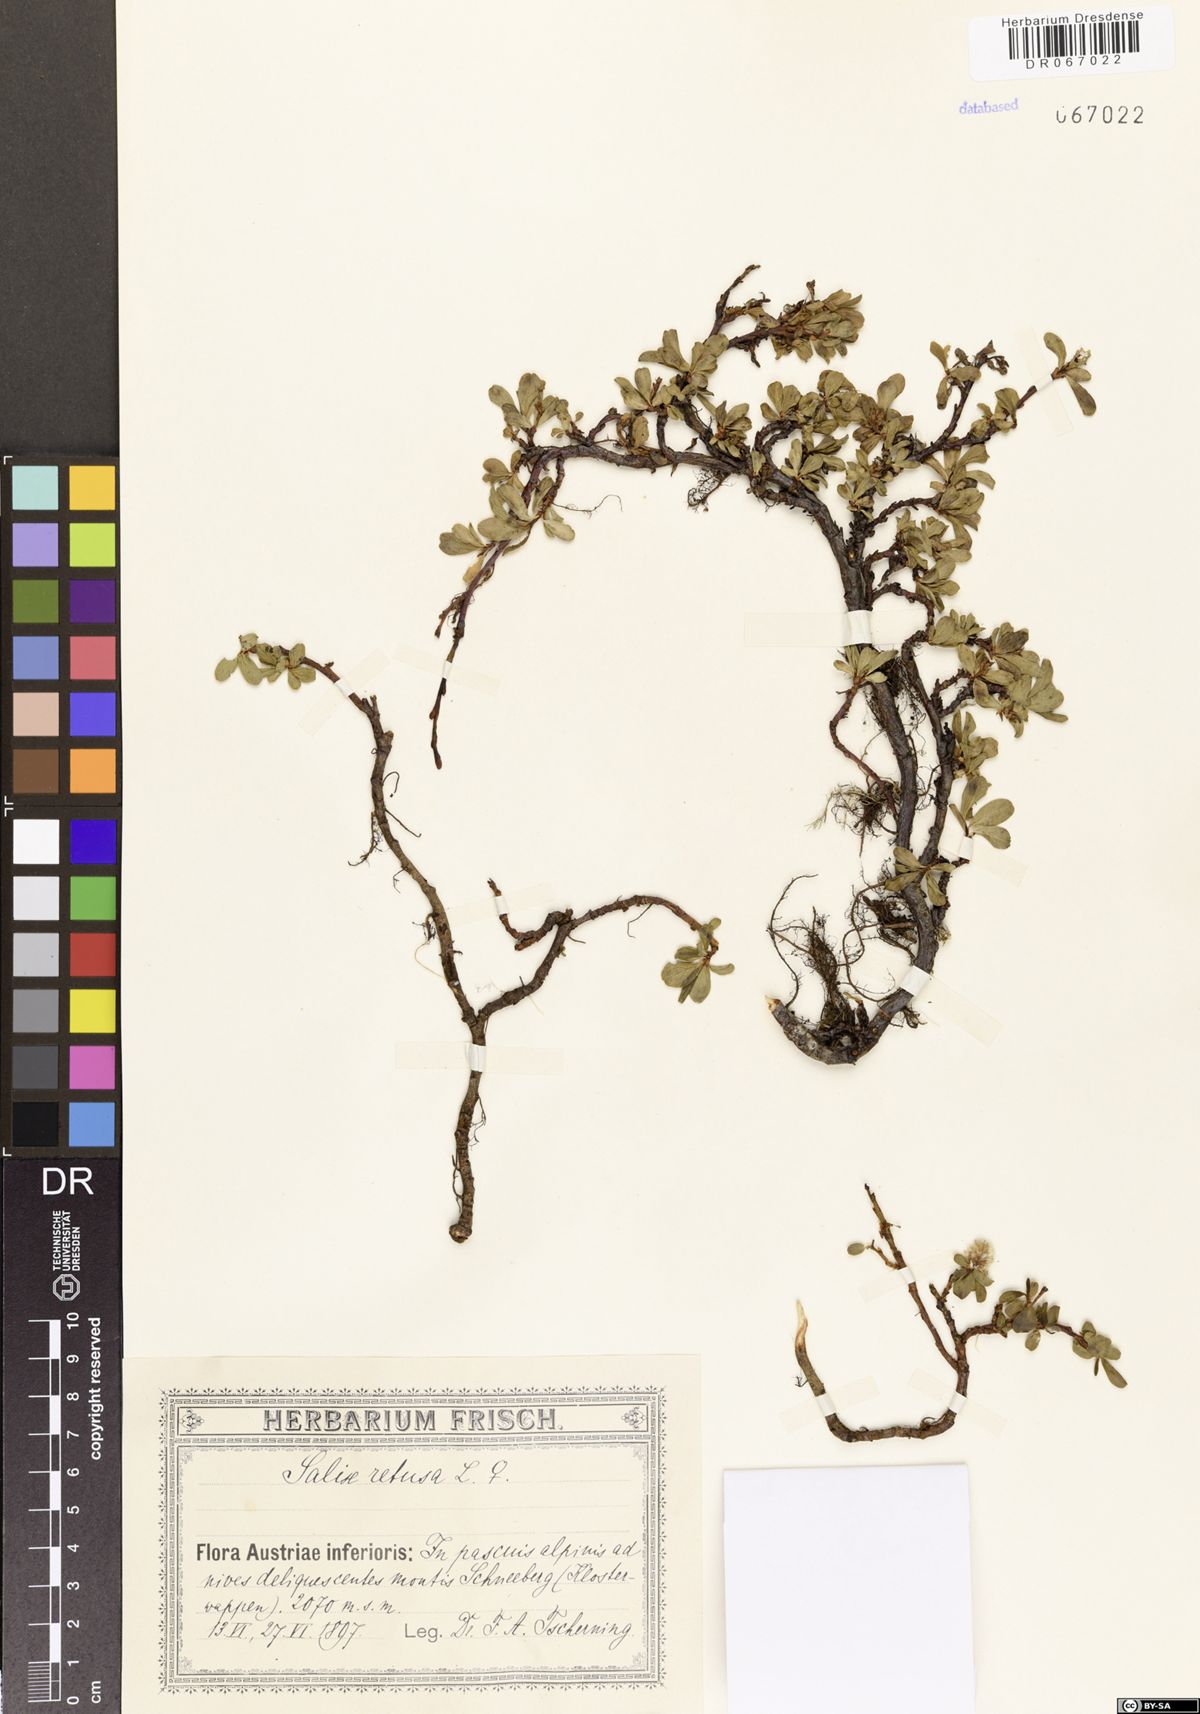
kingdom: Plantae
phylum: Tracheophyta
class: Magnoliopsida
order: Malpighiales
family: Salicaceae
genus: Salix
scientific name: Salix retusa
